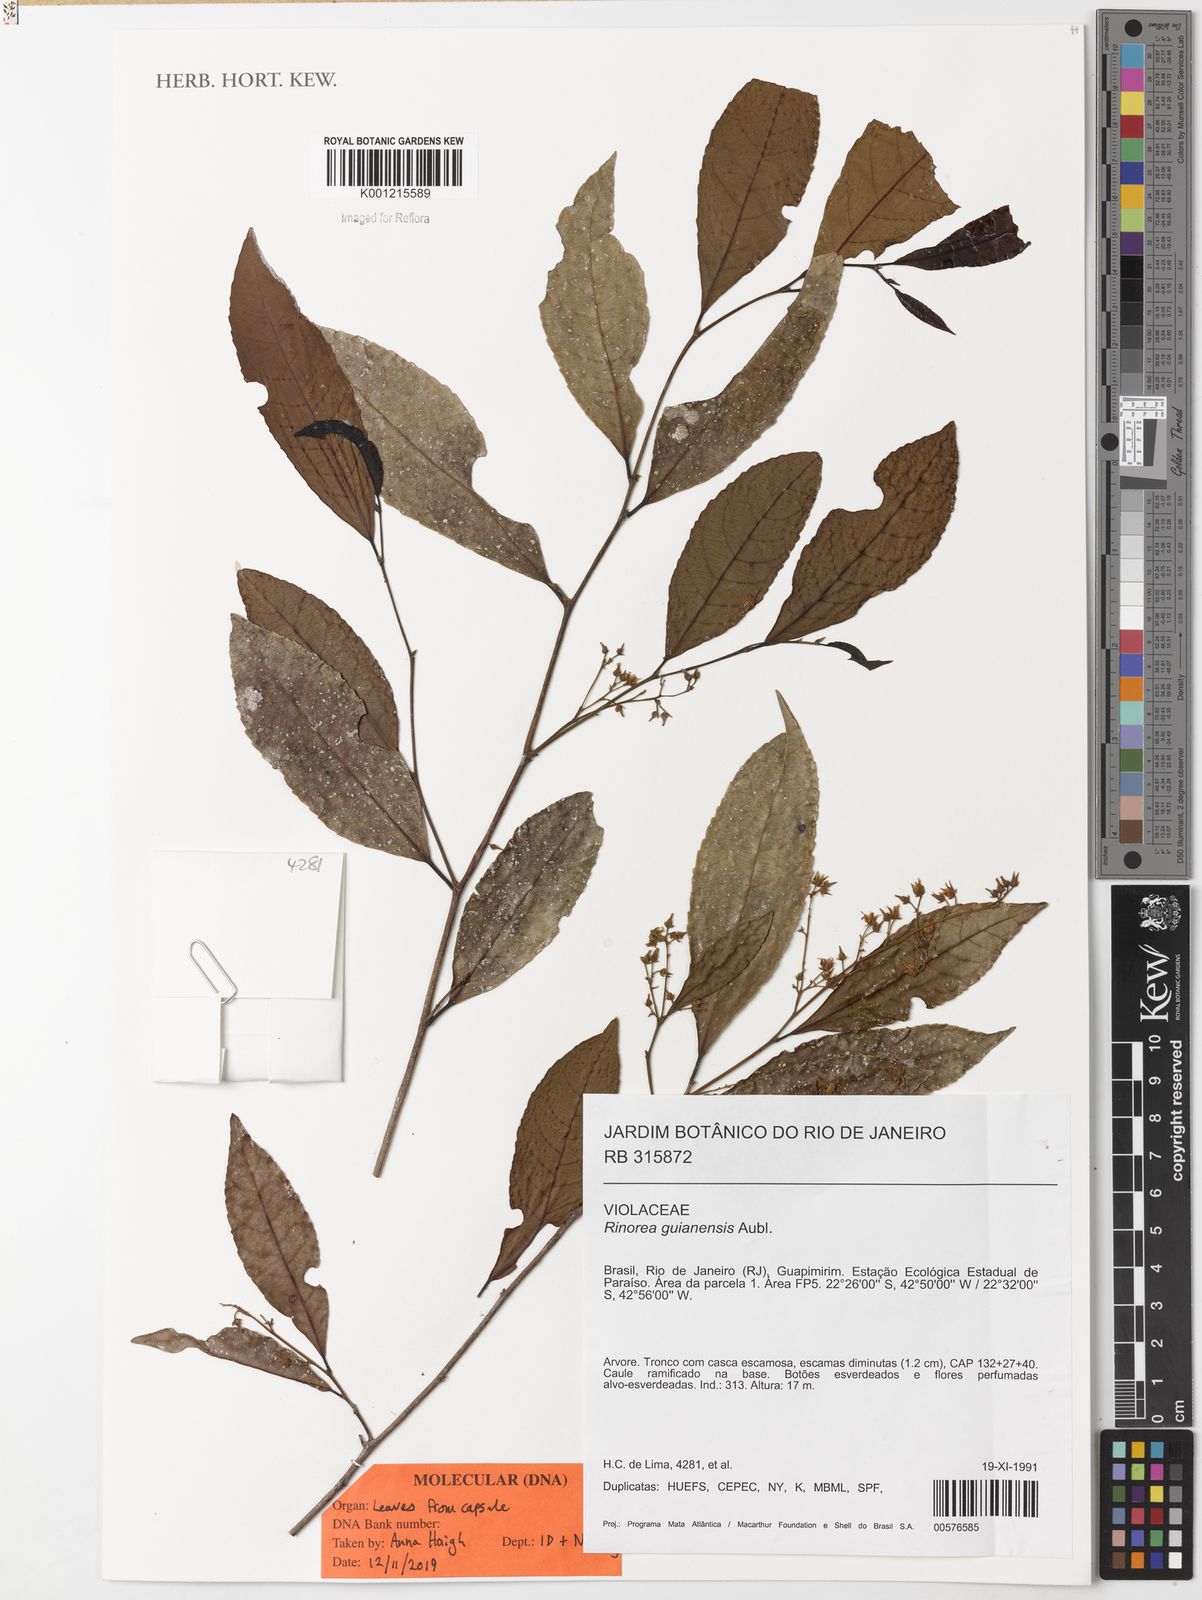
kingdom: Plantae
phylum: Tracheophyta
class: Magnoliopsida
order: Malpighiales
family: Violaceae
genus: Rinorea
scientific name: Rinorea guianensis
